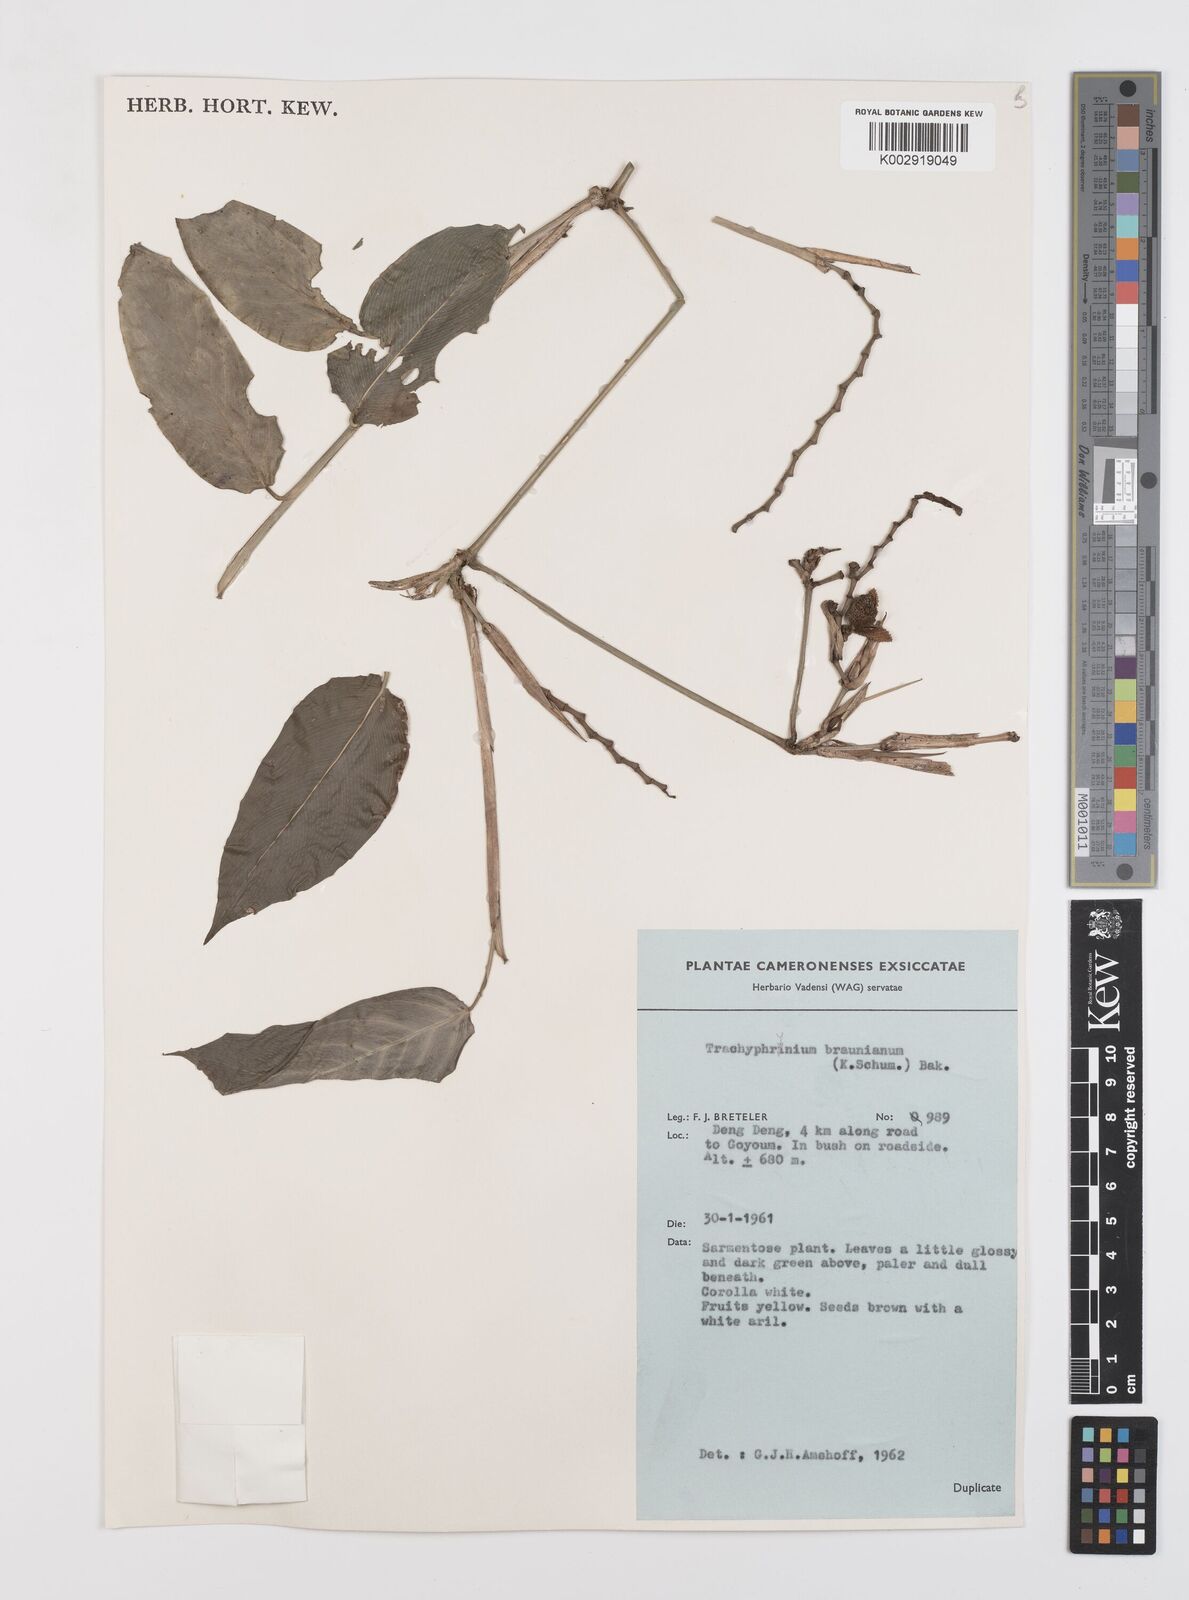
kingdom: Plantae
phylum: Tracheophyta
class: Liliopsida
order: Zingiberales
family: Marantaceae
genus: Trachyphrynium
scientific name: Trachyphrynium braunianum
